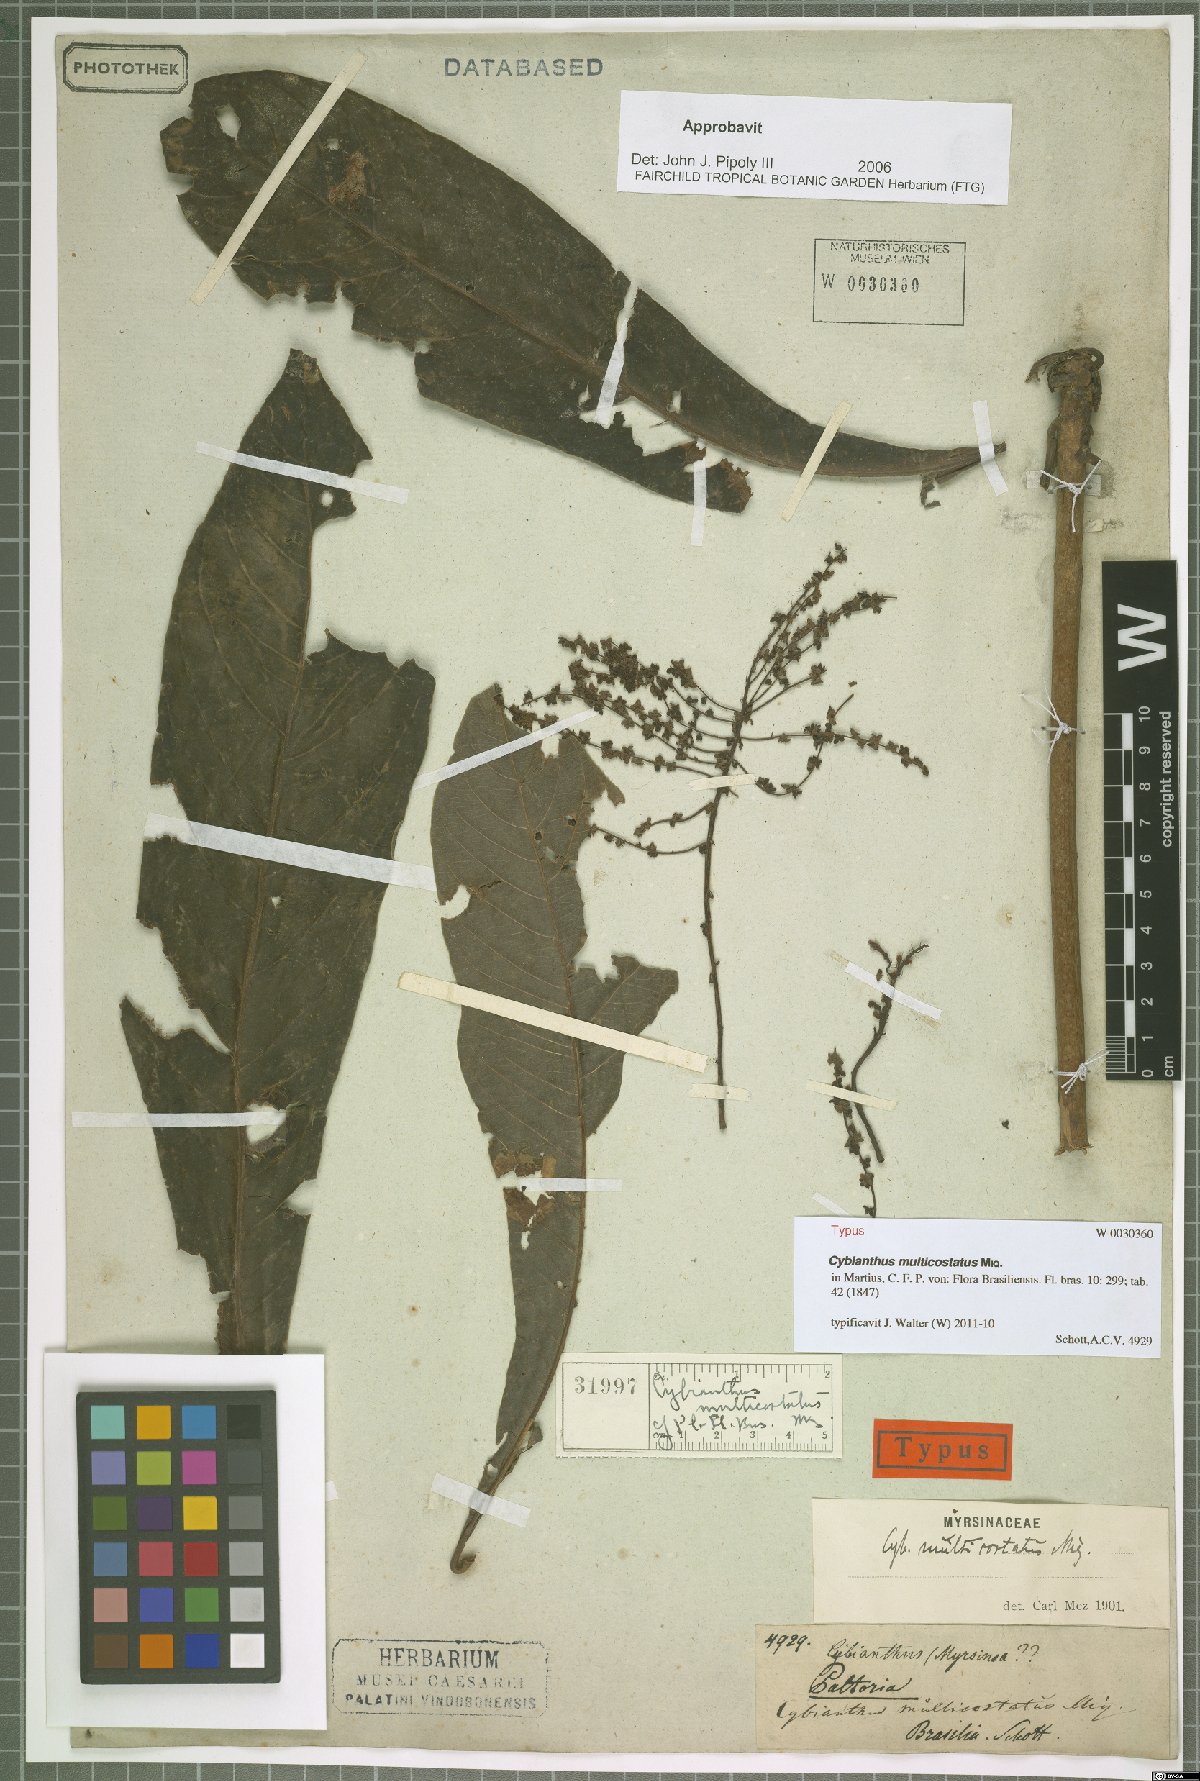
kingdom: Plantae
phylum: Tracheophyta
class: Magnoliopsida
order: Ericales
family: Primulaceae
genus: Cybianthus
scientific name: Cybianthus multicostatus
